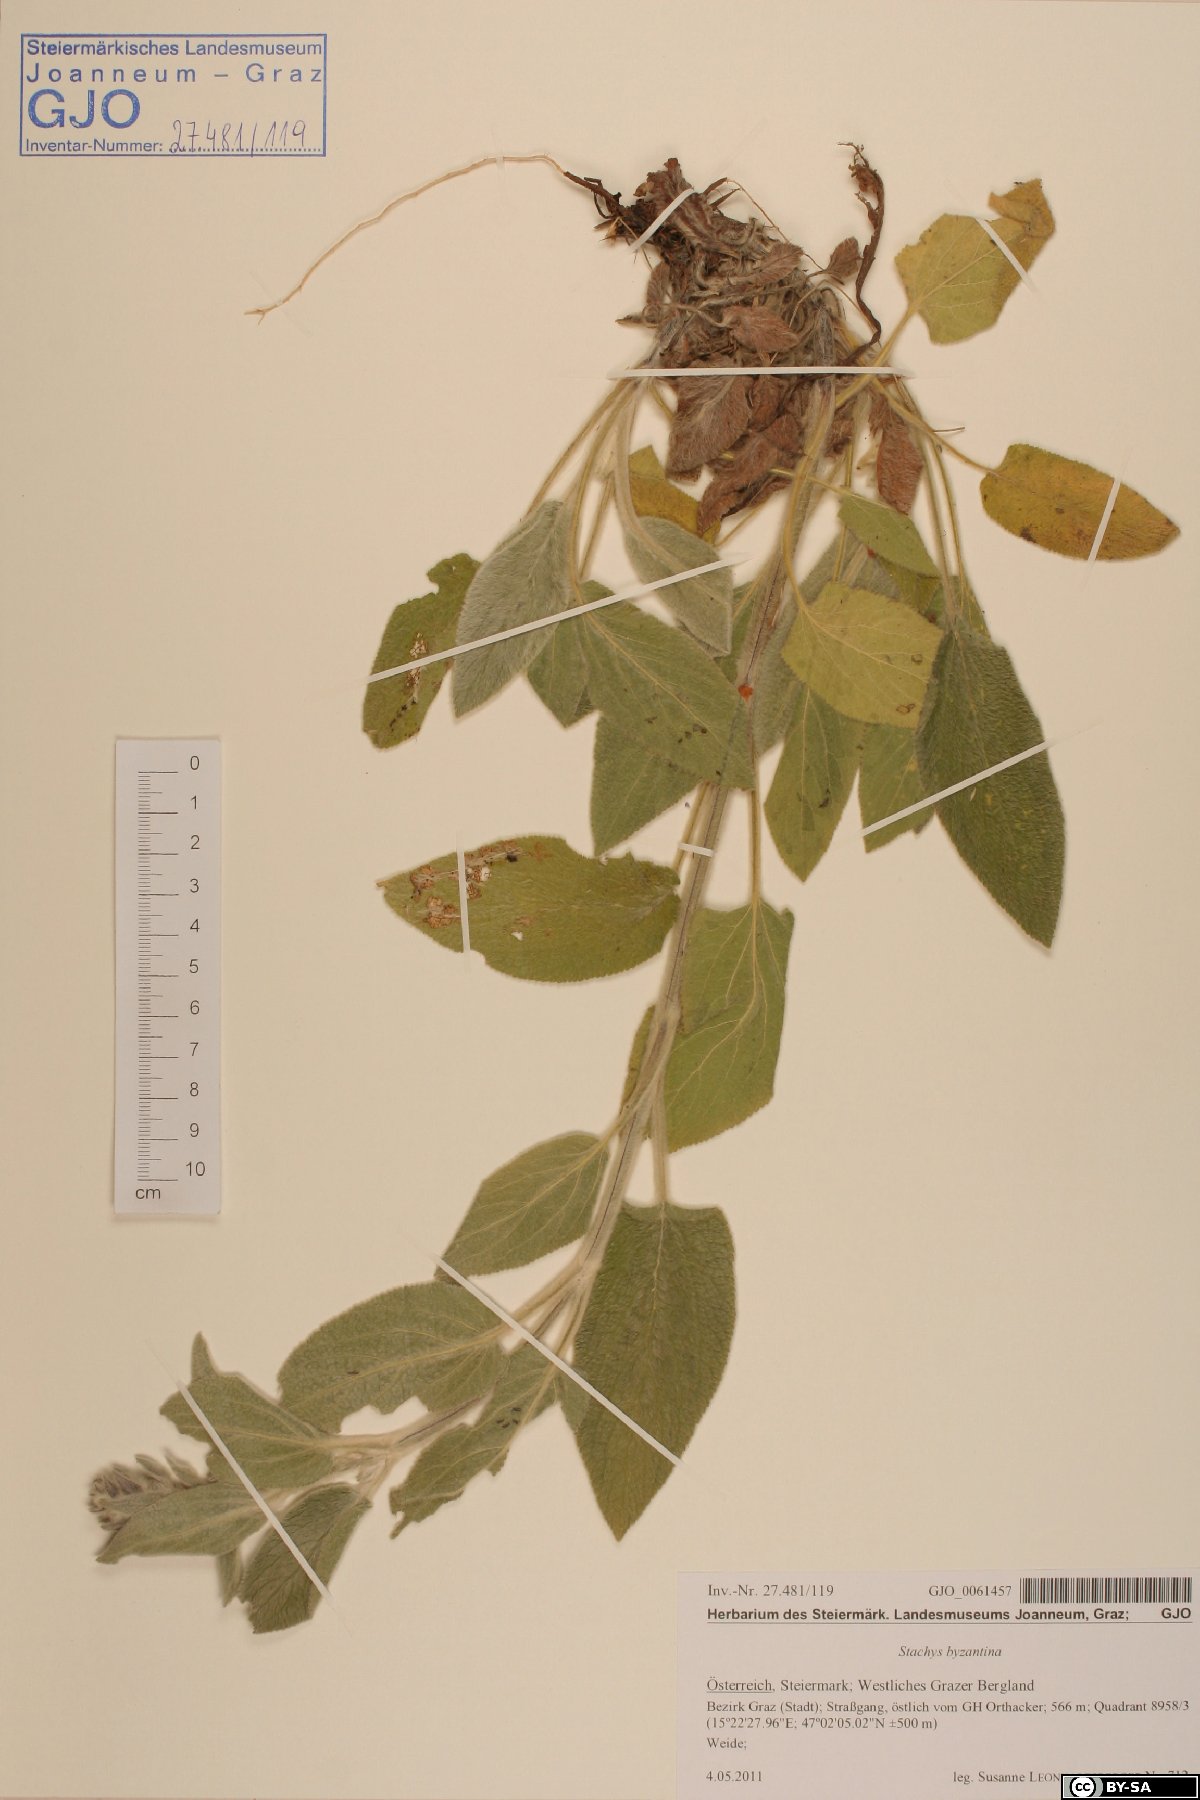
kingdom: Plantae
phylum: Tracheophyta
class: Magnoliopsida
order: Lamiales
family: Lamiaceae
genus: Stachys
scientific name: Stachys byzantina
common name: Lamb's-ear
